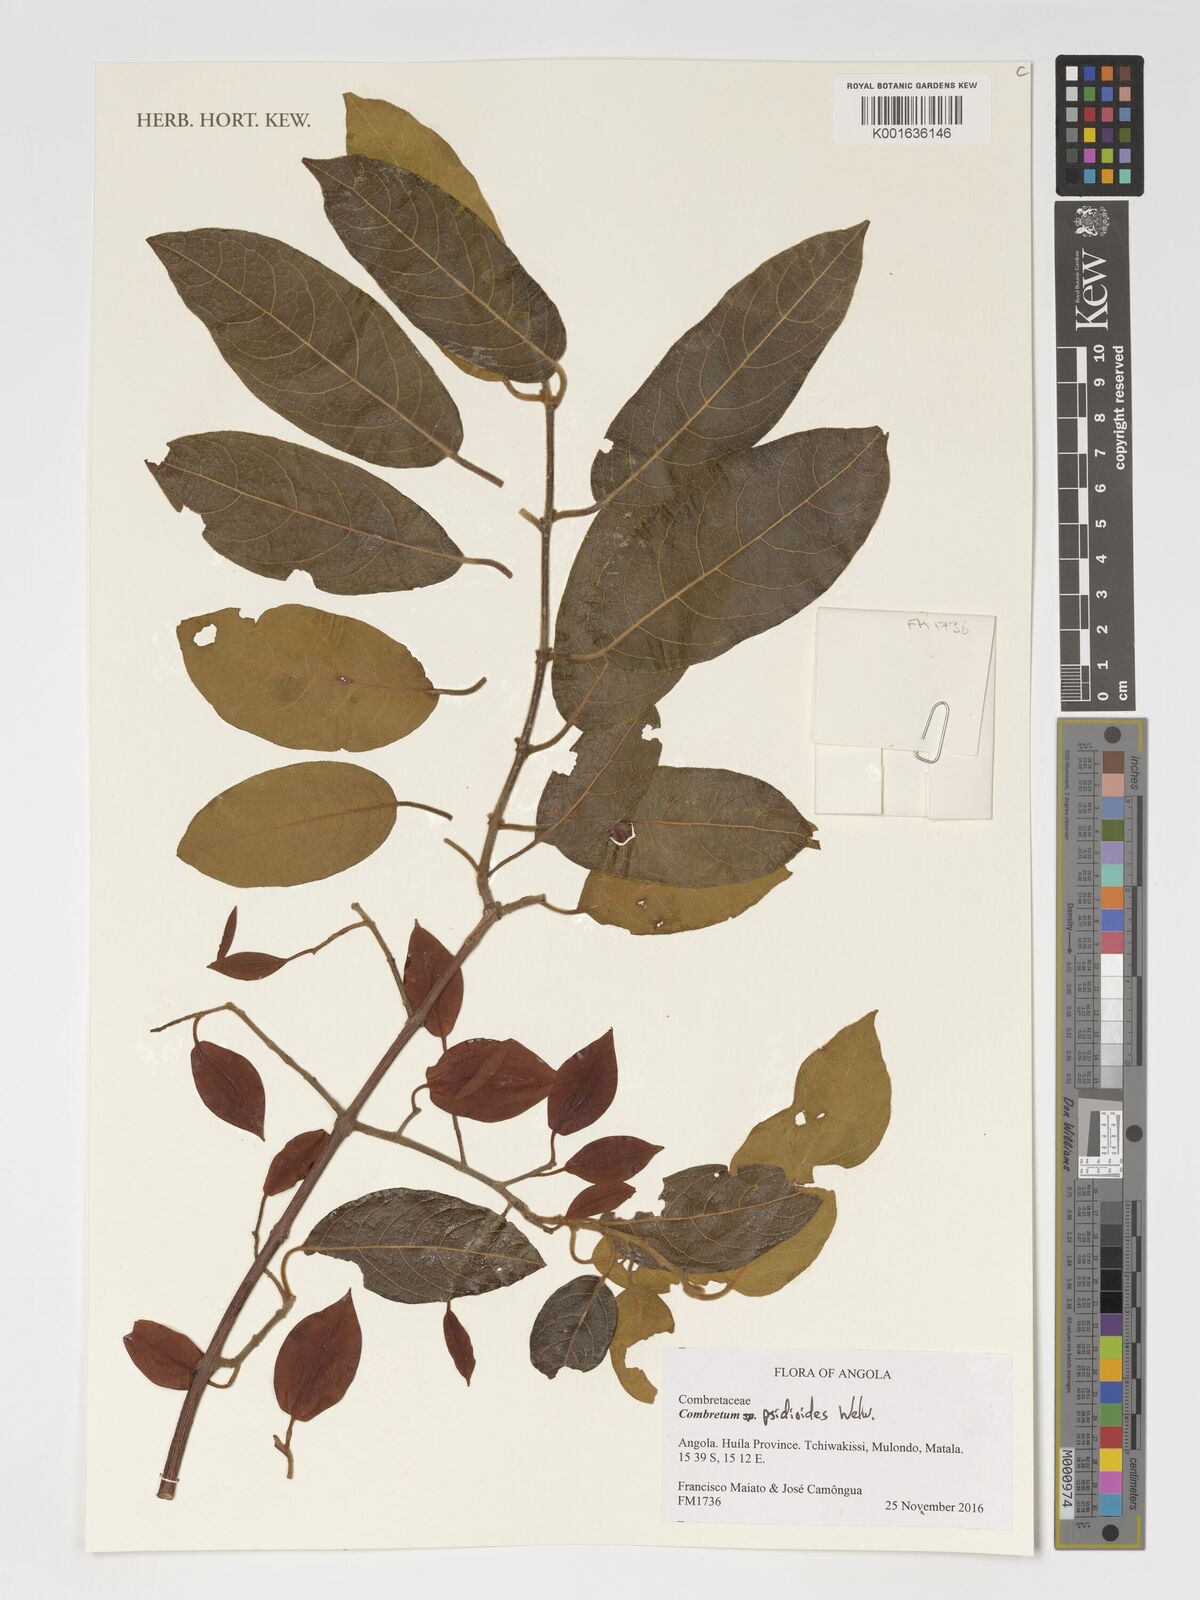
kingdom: Plantae
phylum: Tracheophyta
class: Magnoliopsida
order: Myrtales
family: Combretaceae
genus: Combretum
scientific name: Combretum psidioides
